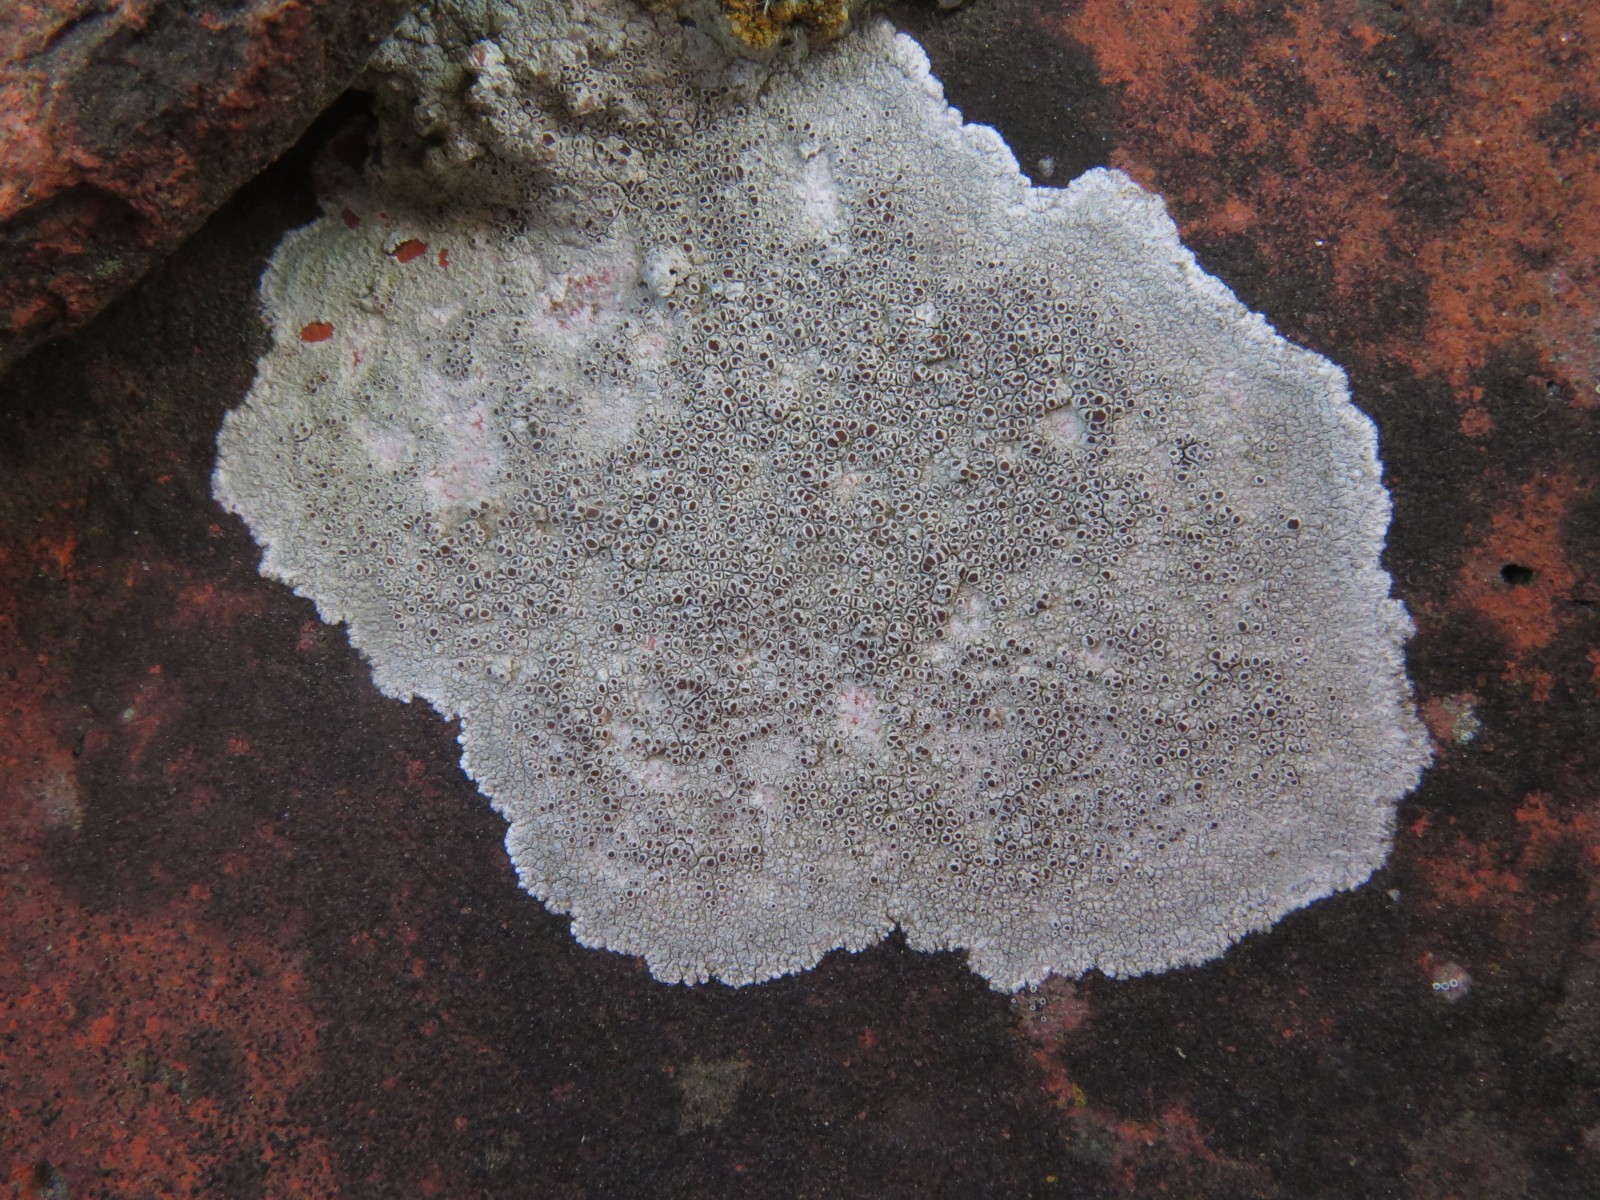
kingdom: Fungi
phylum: Ascomycota
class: Lecanoromycetes
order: Lecanorales
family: Lecanoraceae
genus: Lecanora
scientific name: Lecanora campestris
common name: mur-kantskivelav
